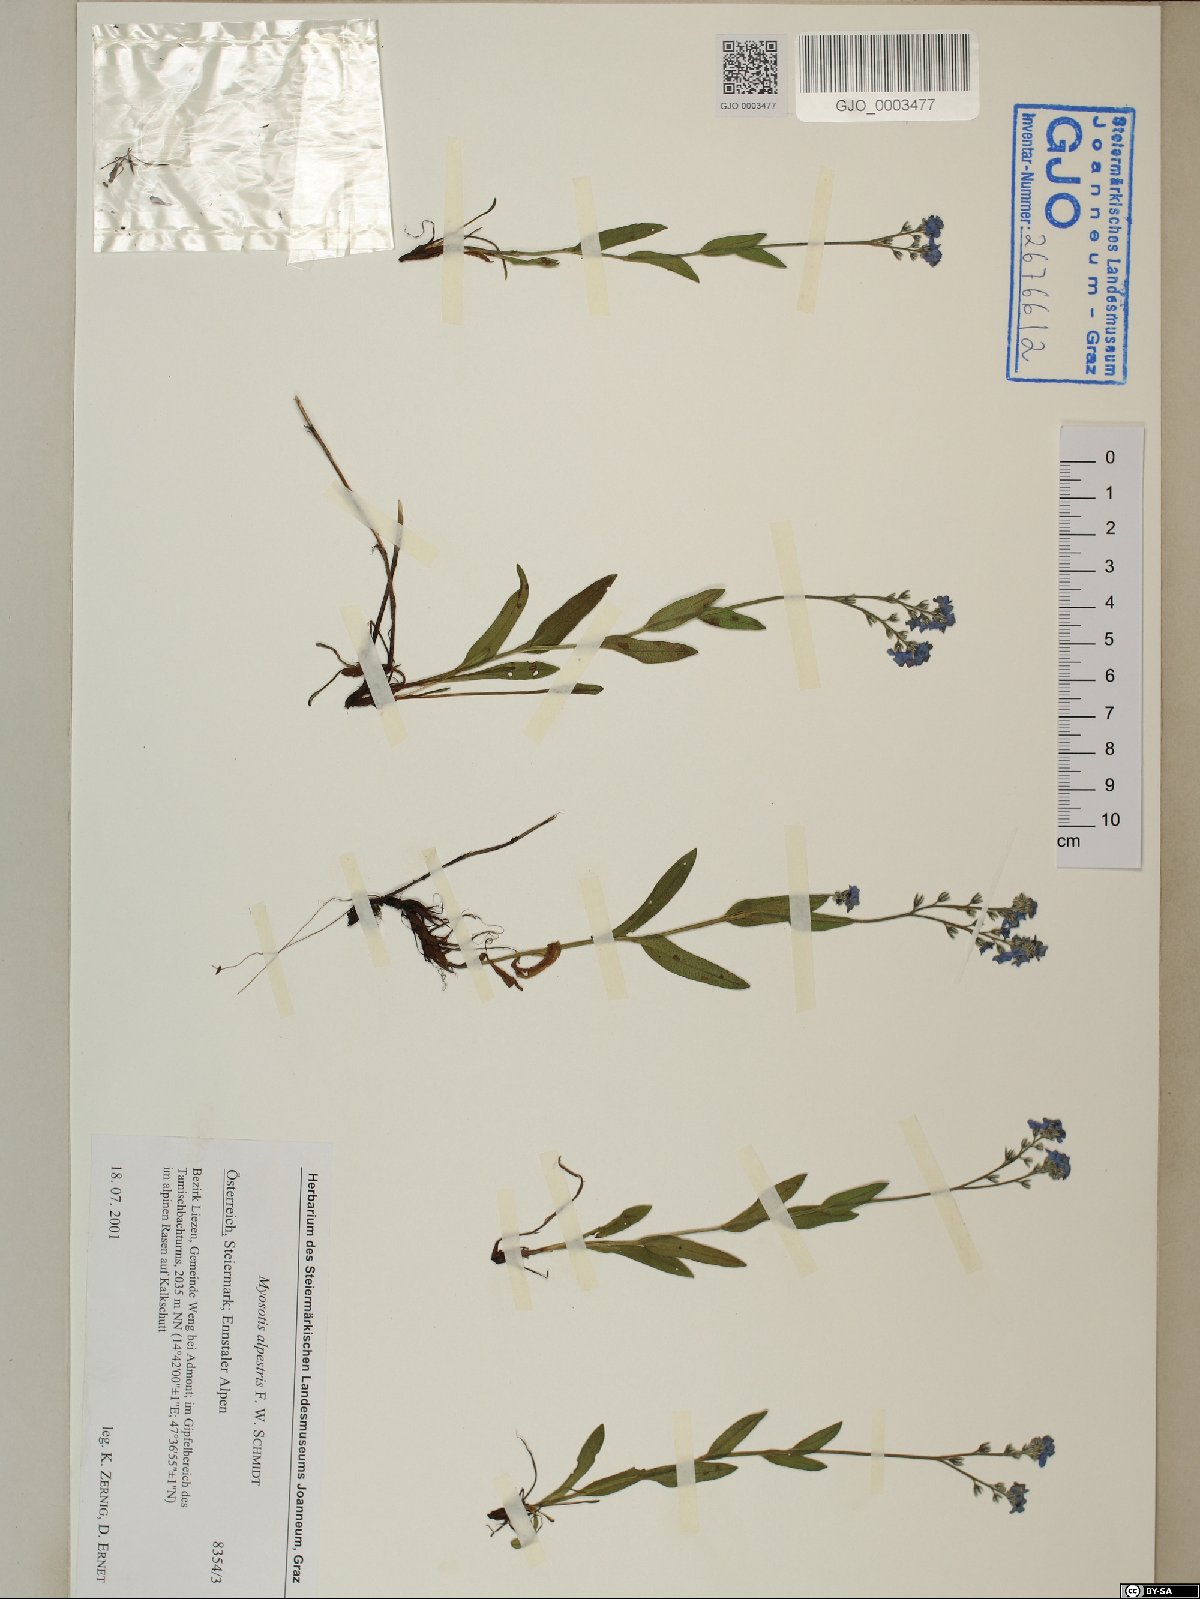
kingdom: Plantae
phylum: Tracheophyta
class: Magnoliopsida
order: Boraginales
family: Boraginaceae
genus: Myosotis
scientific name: Myosotis alpestris
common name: Alpine forget-me-not
